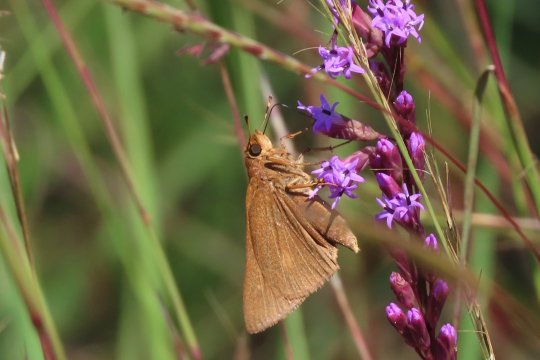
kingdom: Animalia
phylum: Arthropoda
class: Insecta
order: Lepidoptera
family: Hesperiidae
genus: Euphyes
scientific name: Euphyes pilatka
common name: Palatka Skipper
